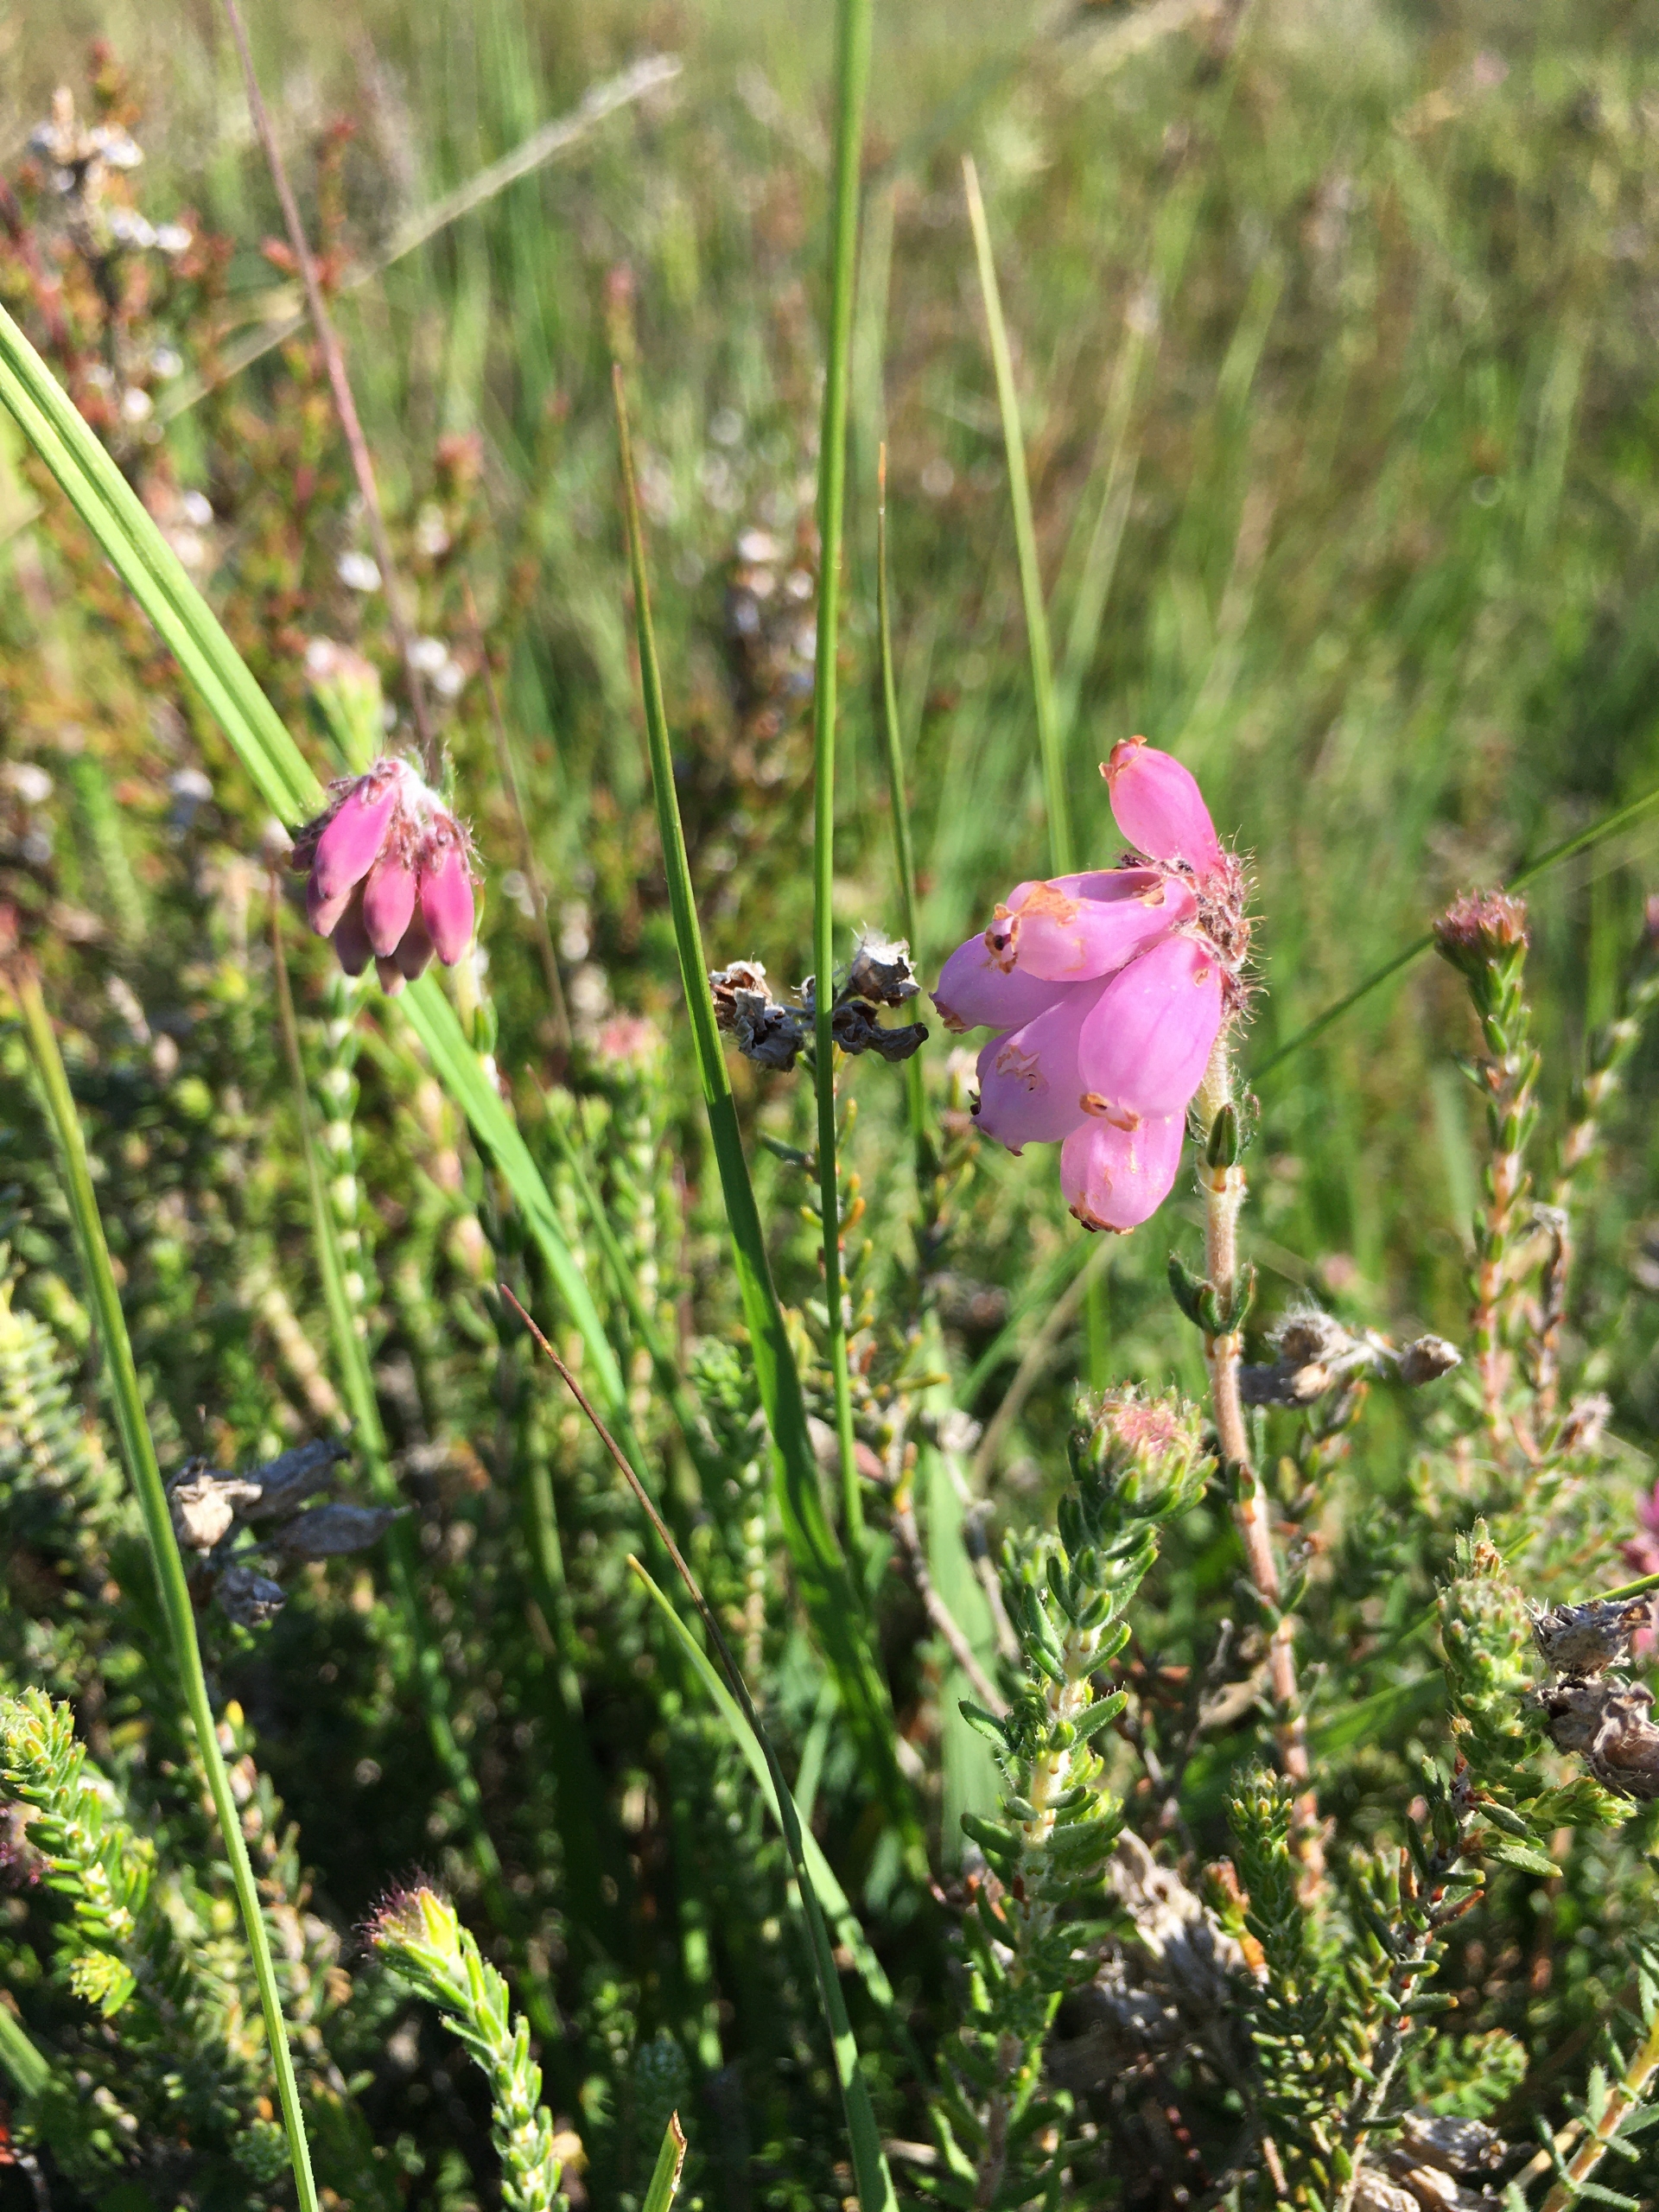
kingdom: Plantae
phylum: Tracheophyta
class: Magnoliopsida
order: Ericales
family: Ericaceae
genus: Erica
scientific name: Erica tetralix
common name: Klokkelyng
